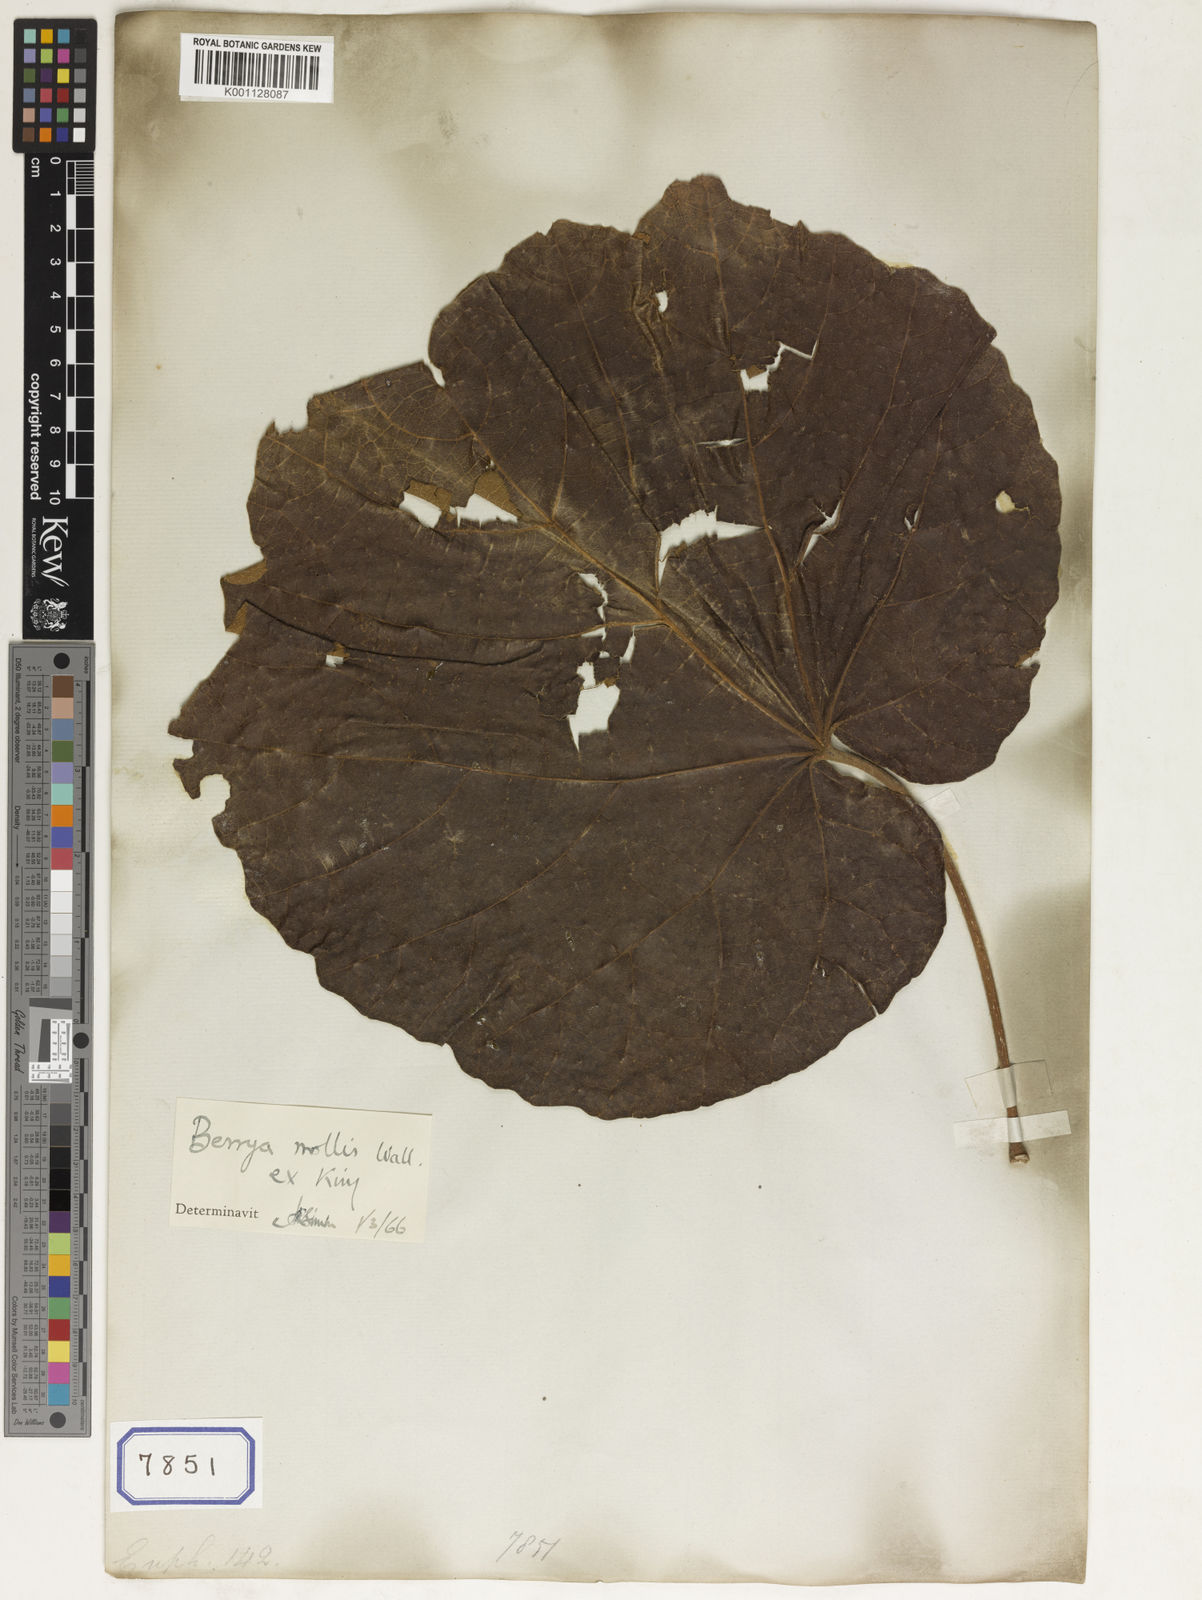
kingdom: Plantae
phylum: Tracheophyta
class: Magnoliopsida
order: Malpighiales
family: Euphorbiaceae
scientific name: Euphorbiaceae
